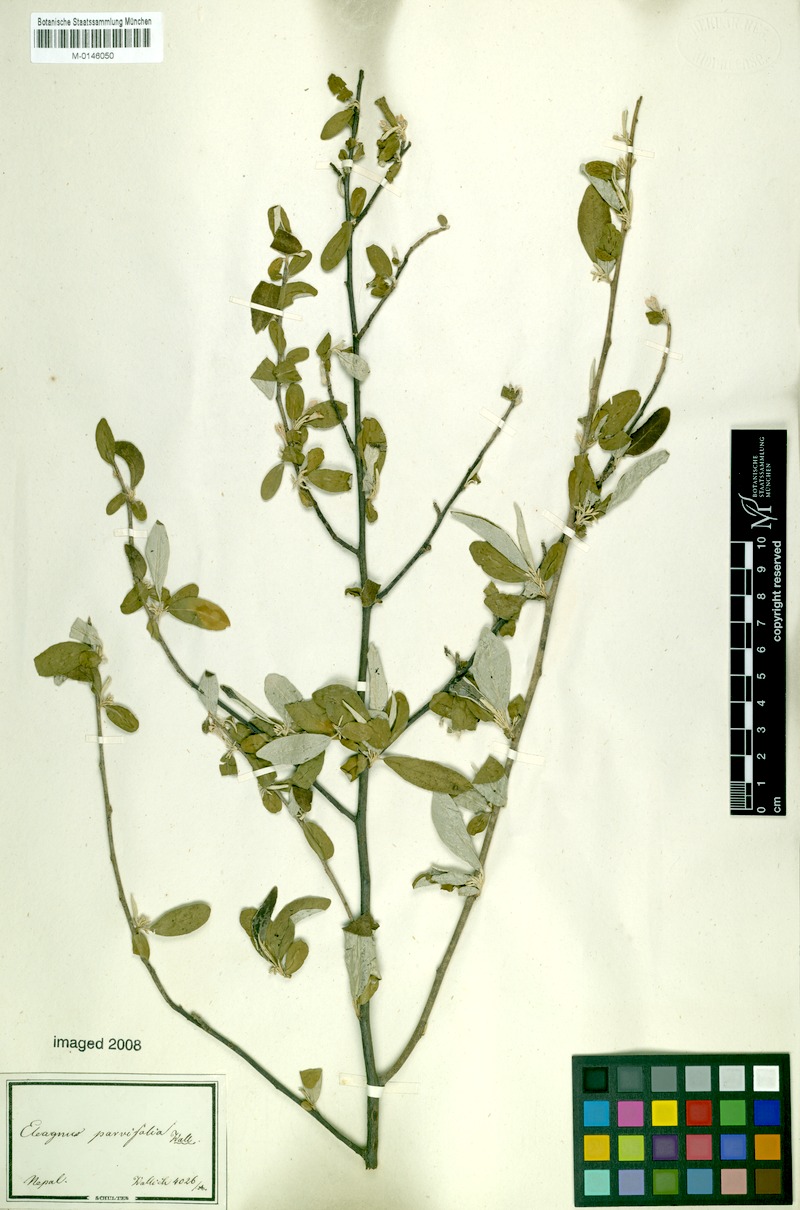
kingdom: Plantae
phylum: Tracheophyta
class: Magnoliopsida
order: Rosales
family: Elaeagnaceae
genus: Elaeagnus
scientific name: Elaeagnus umbellata
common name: Autumn olive
